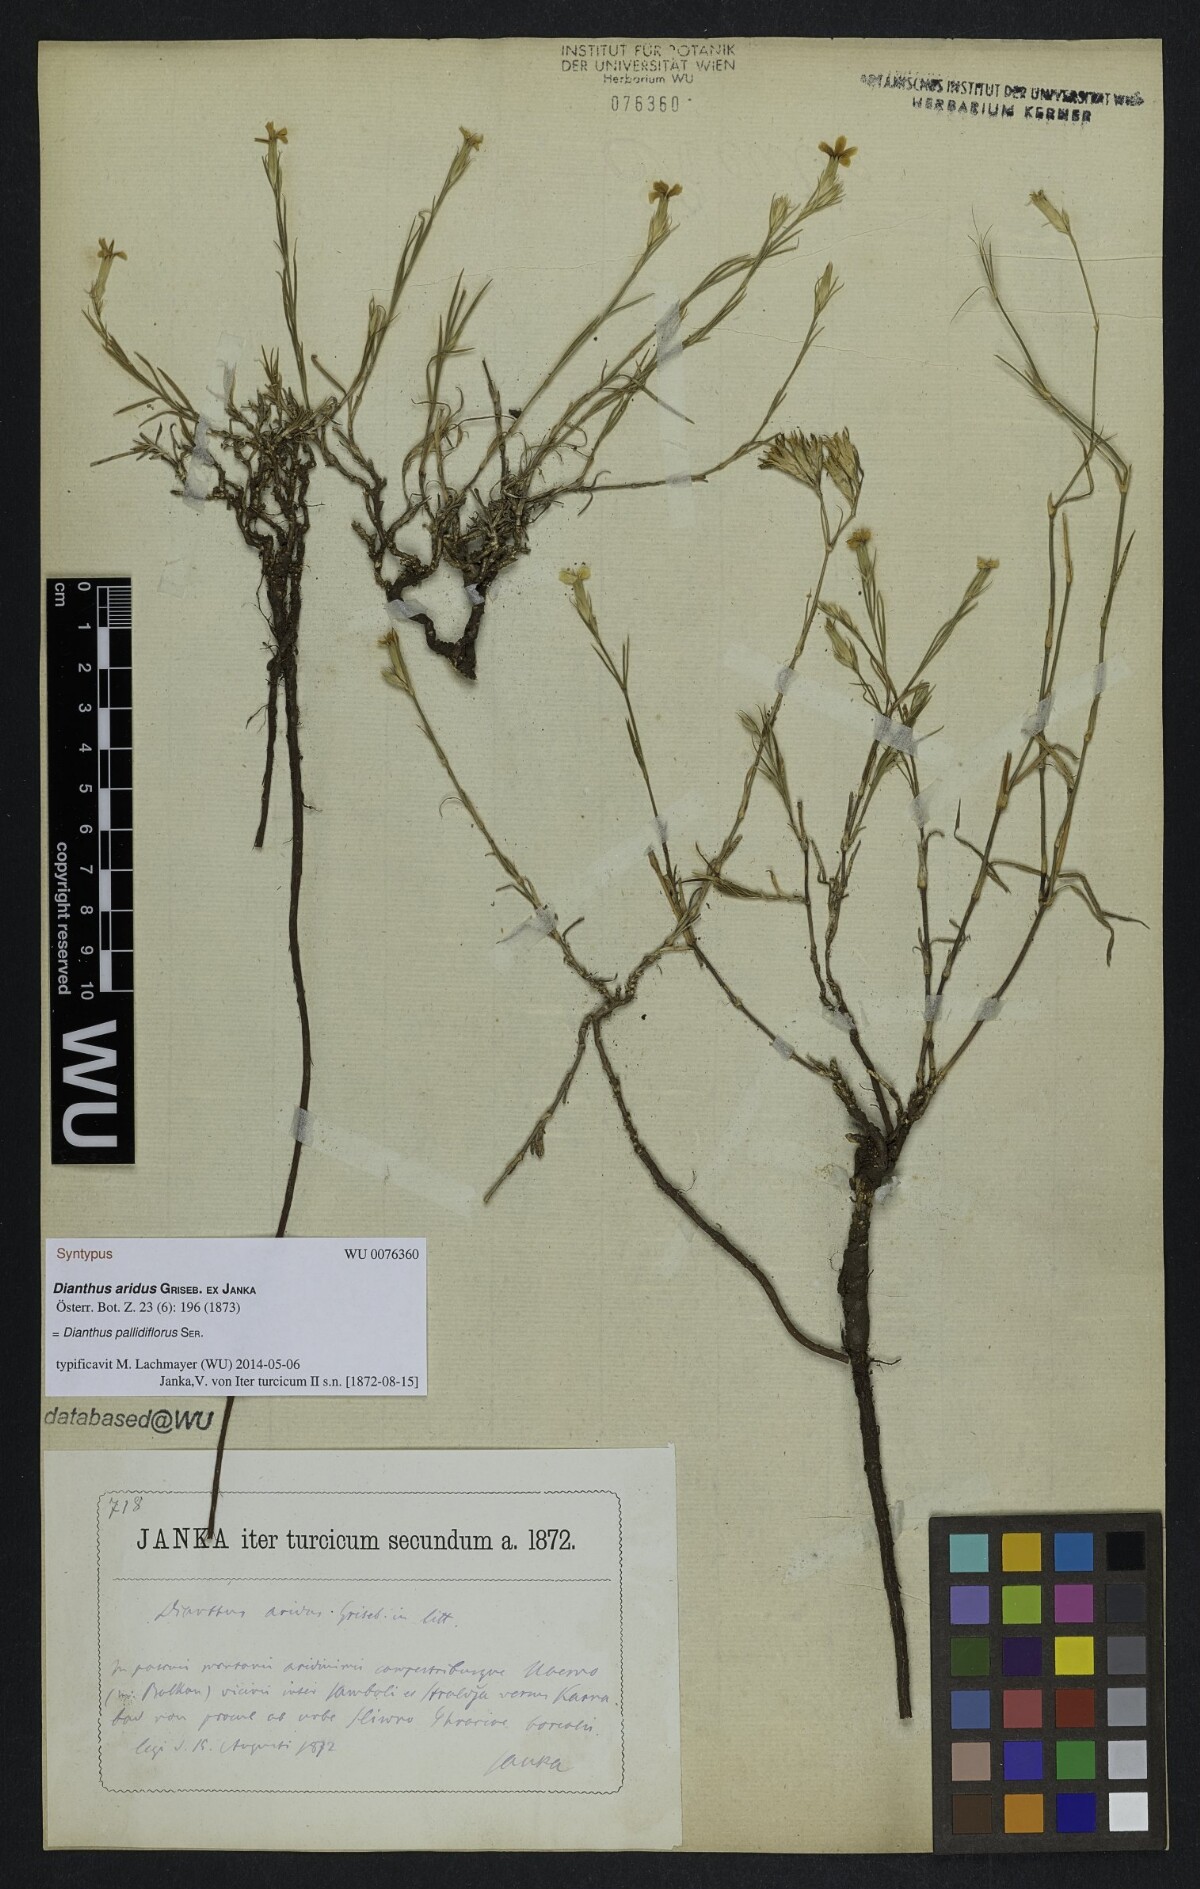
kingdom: Plantae
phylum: Tracheophyta
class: Magnoliopsida
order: Caryophyllales
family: Caryophyllaceae
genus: Dianthus
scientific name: Dianthus pallens
